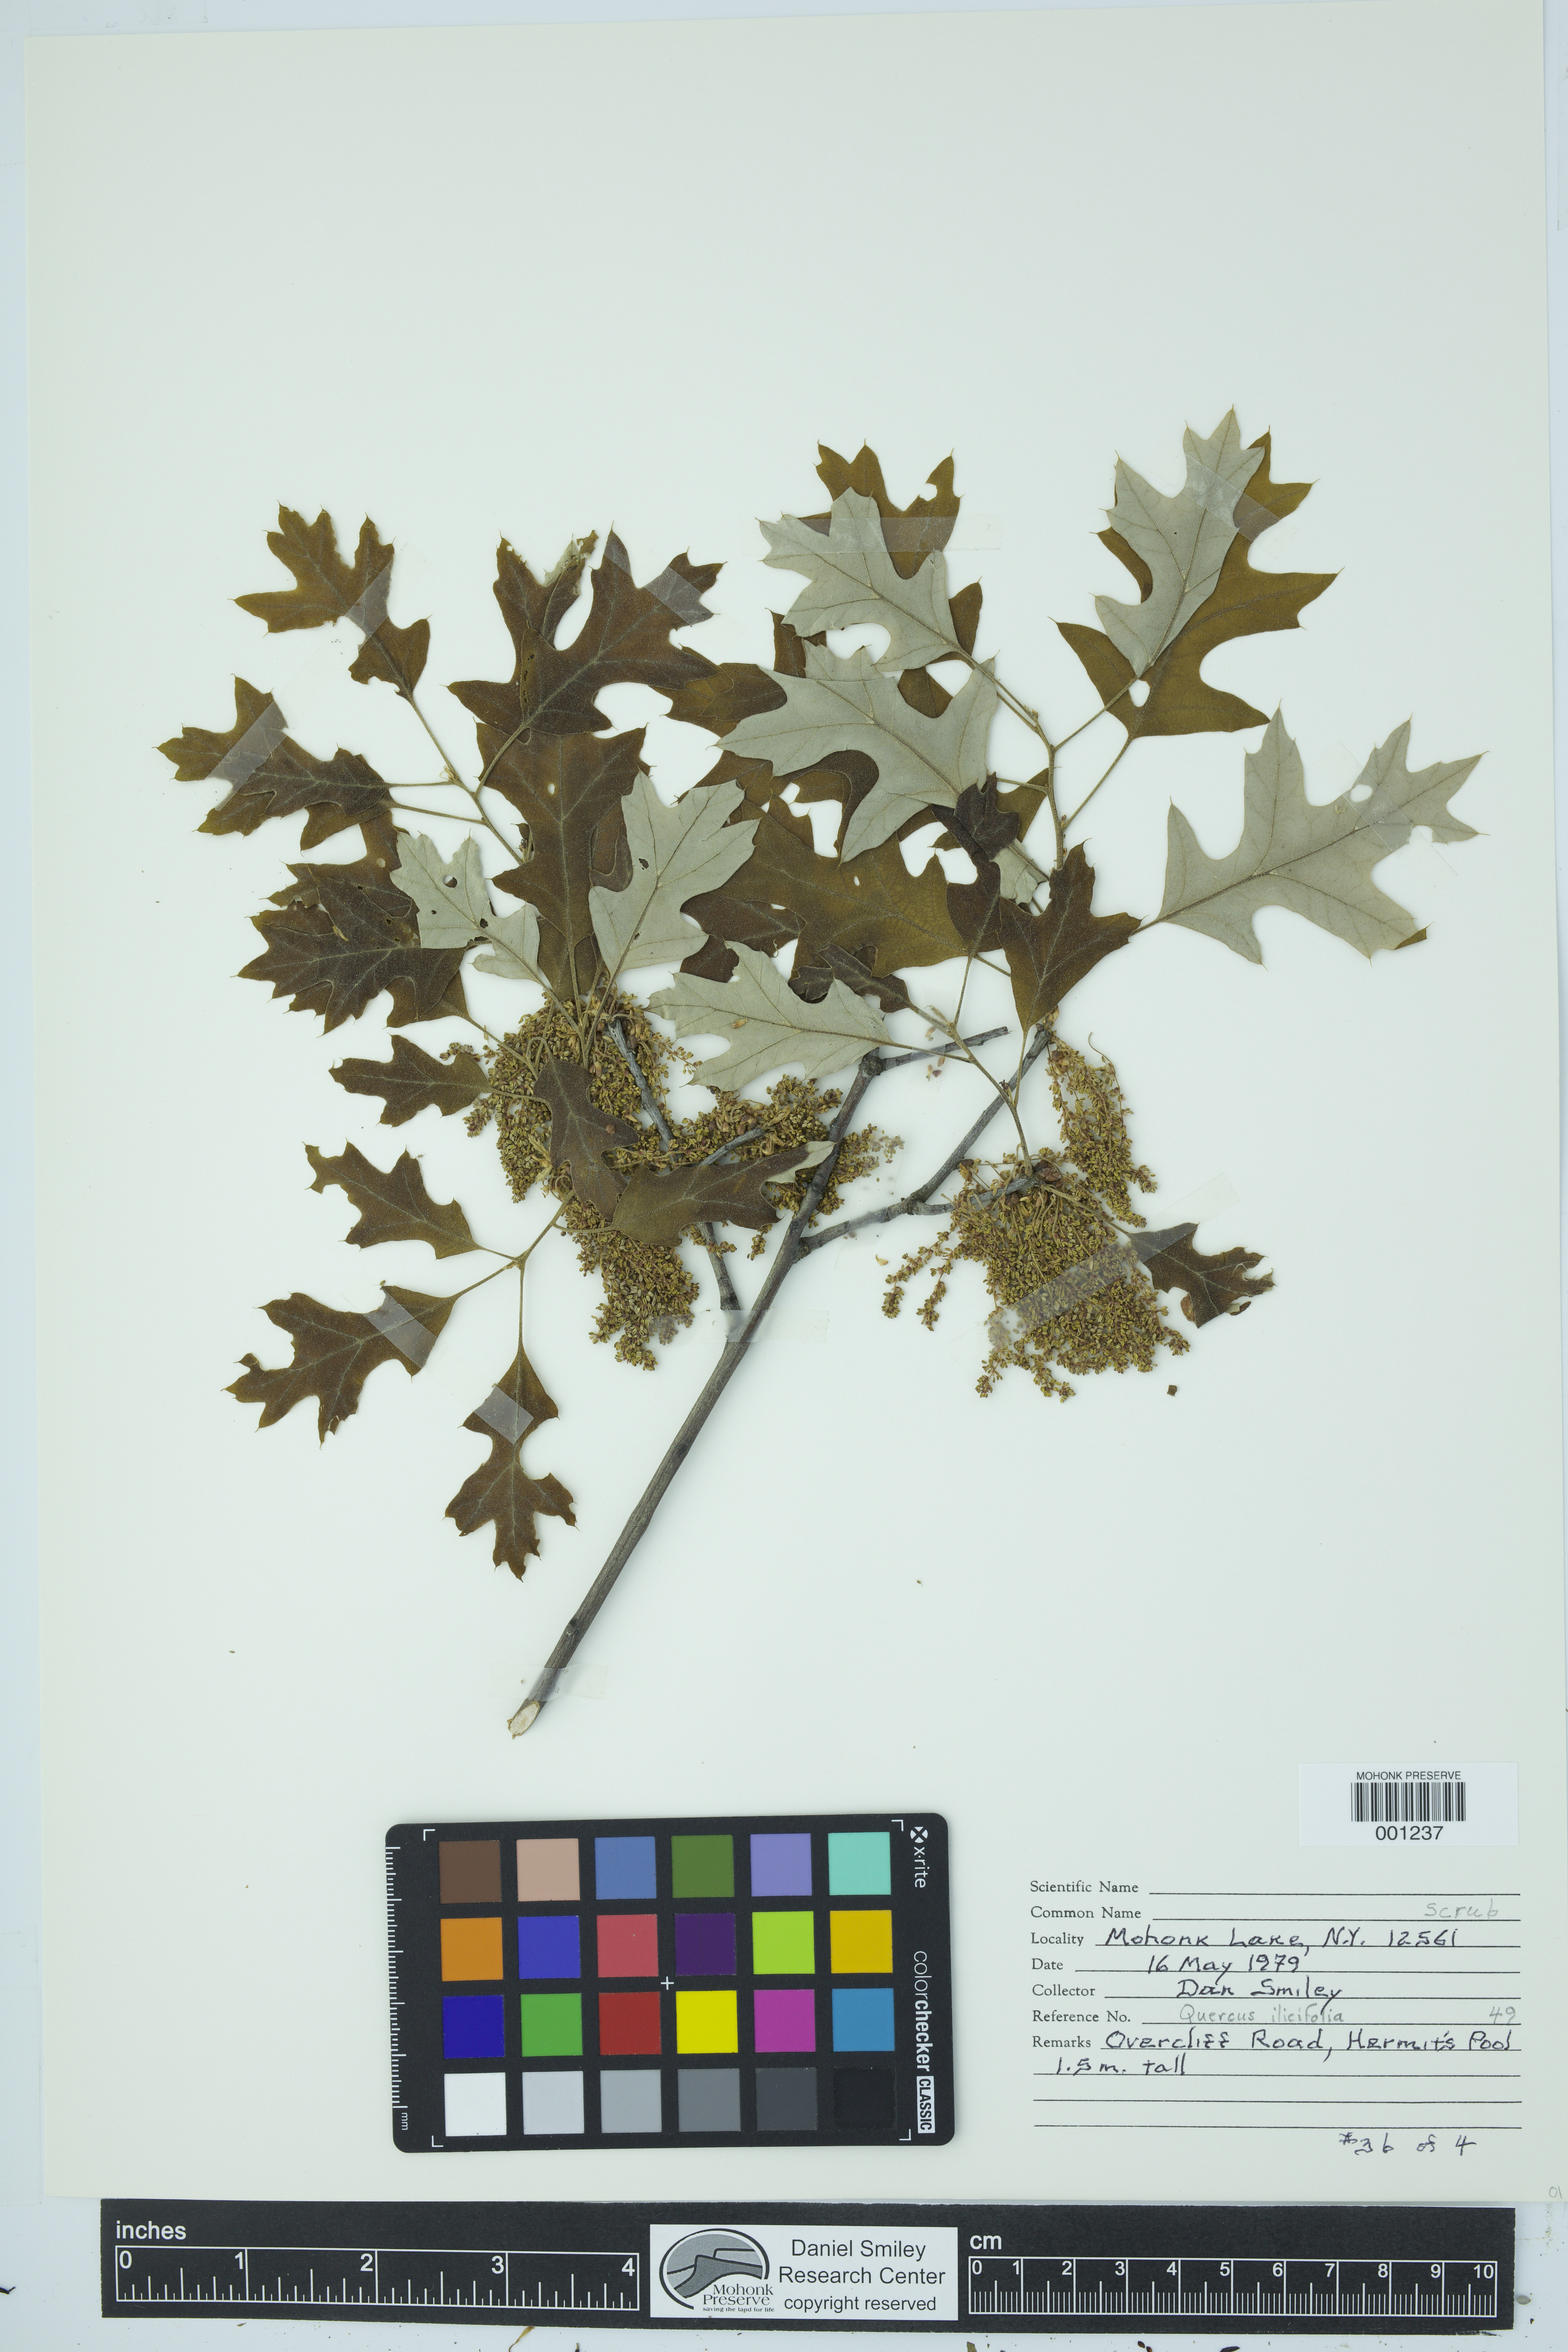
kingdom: Plantae
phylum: Tracheophyta
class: Magnoliopsida
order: Fagales
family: Fagaceae
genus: Quercus
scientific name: Quercus ilicifolia
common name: Bear oak
